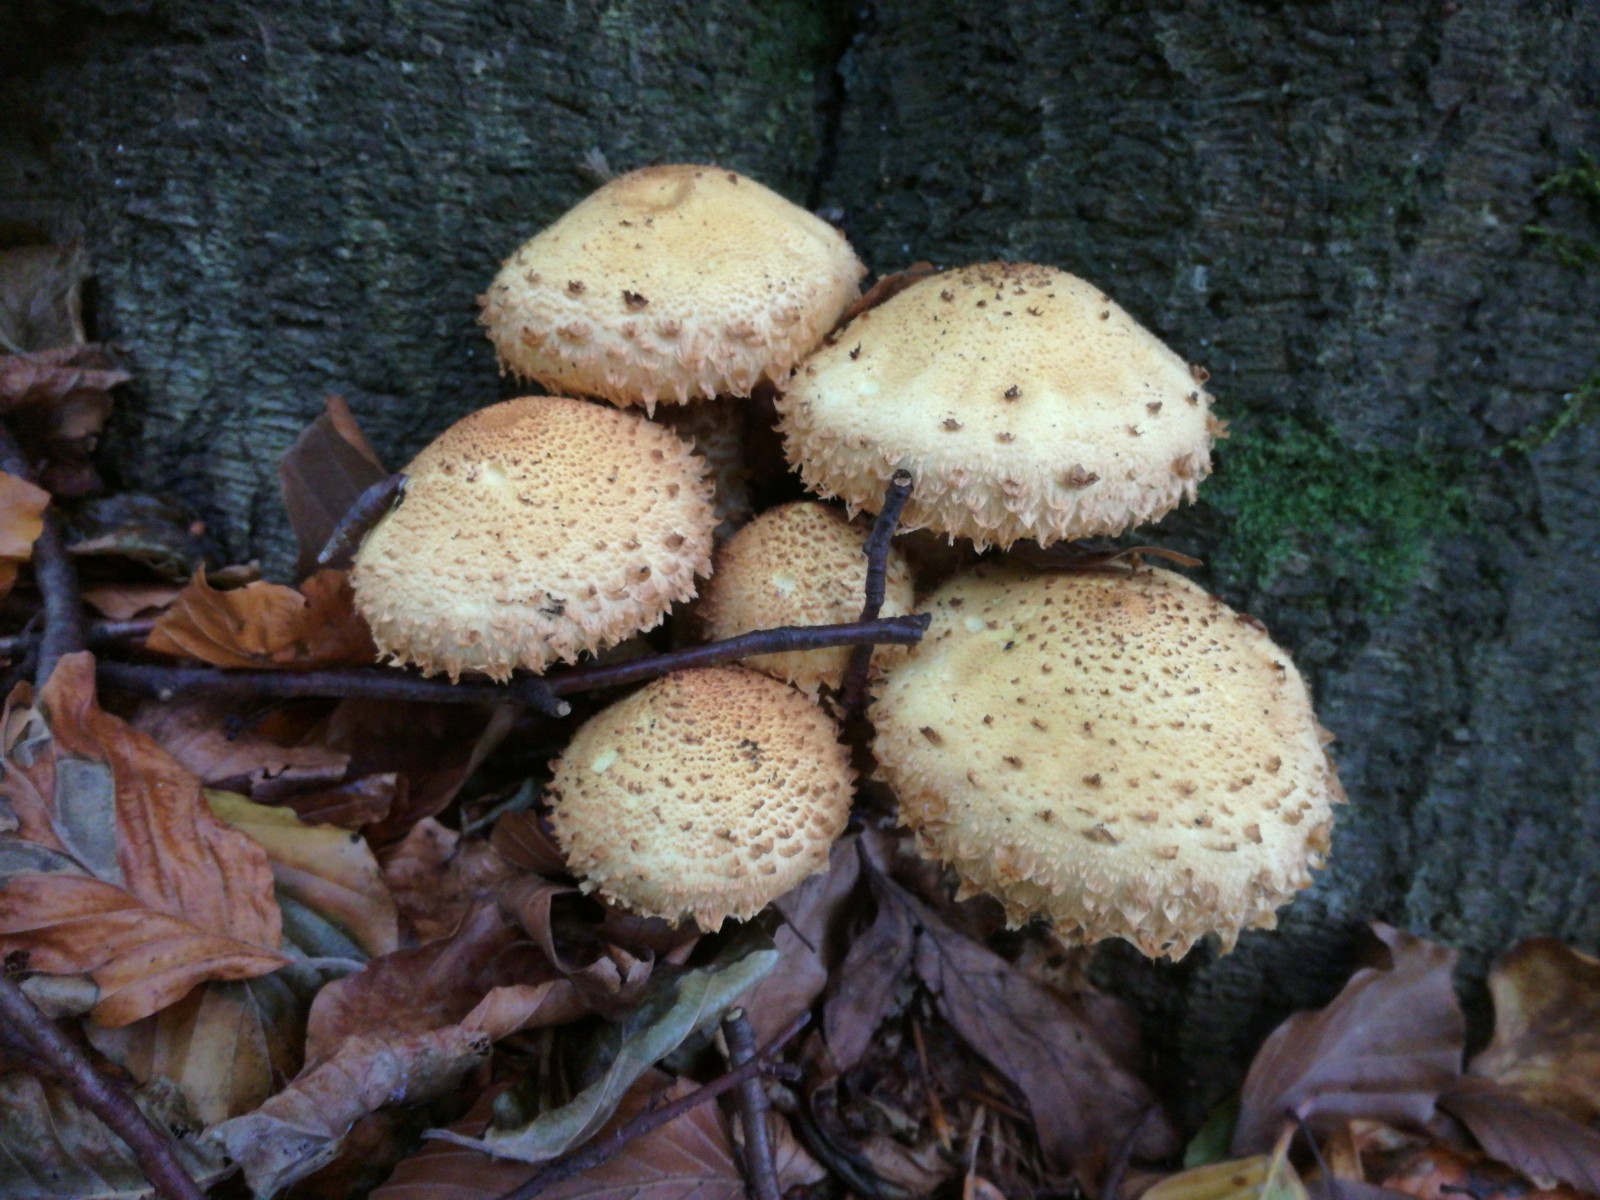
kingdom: Fungi
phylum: Basidiomycota
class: Agaricomycetes
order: Agaricales
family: Strophariaceae
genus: Pholiota
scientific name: Pholiota squarrosa
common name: krumskællet skælhat
